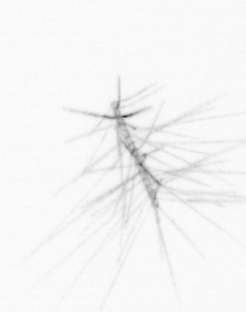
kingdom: Chromista
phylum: Ochrophyta
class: Bacillariophyceae
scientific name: Bacillariophyceae
